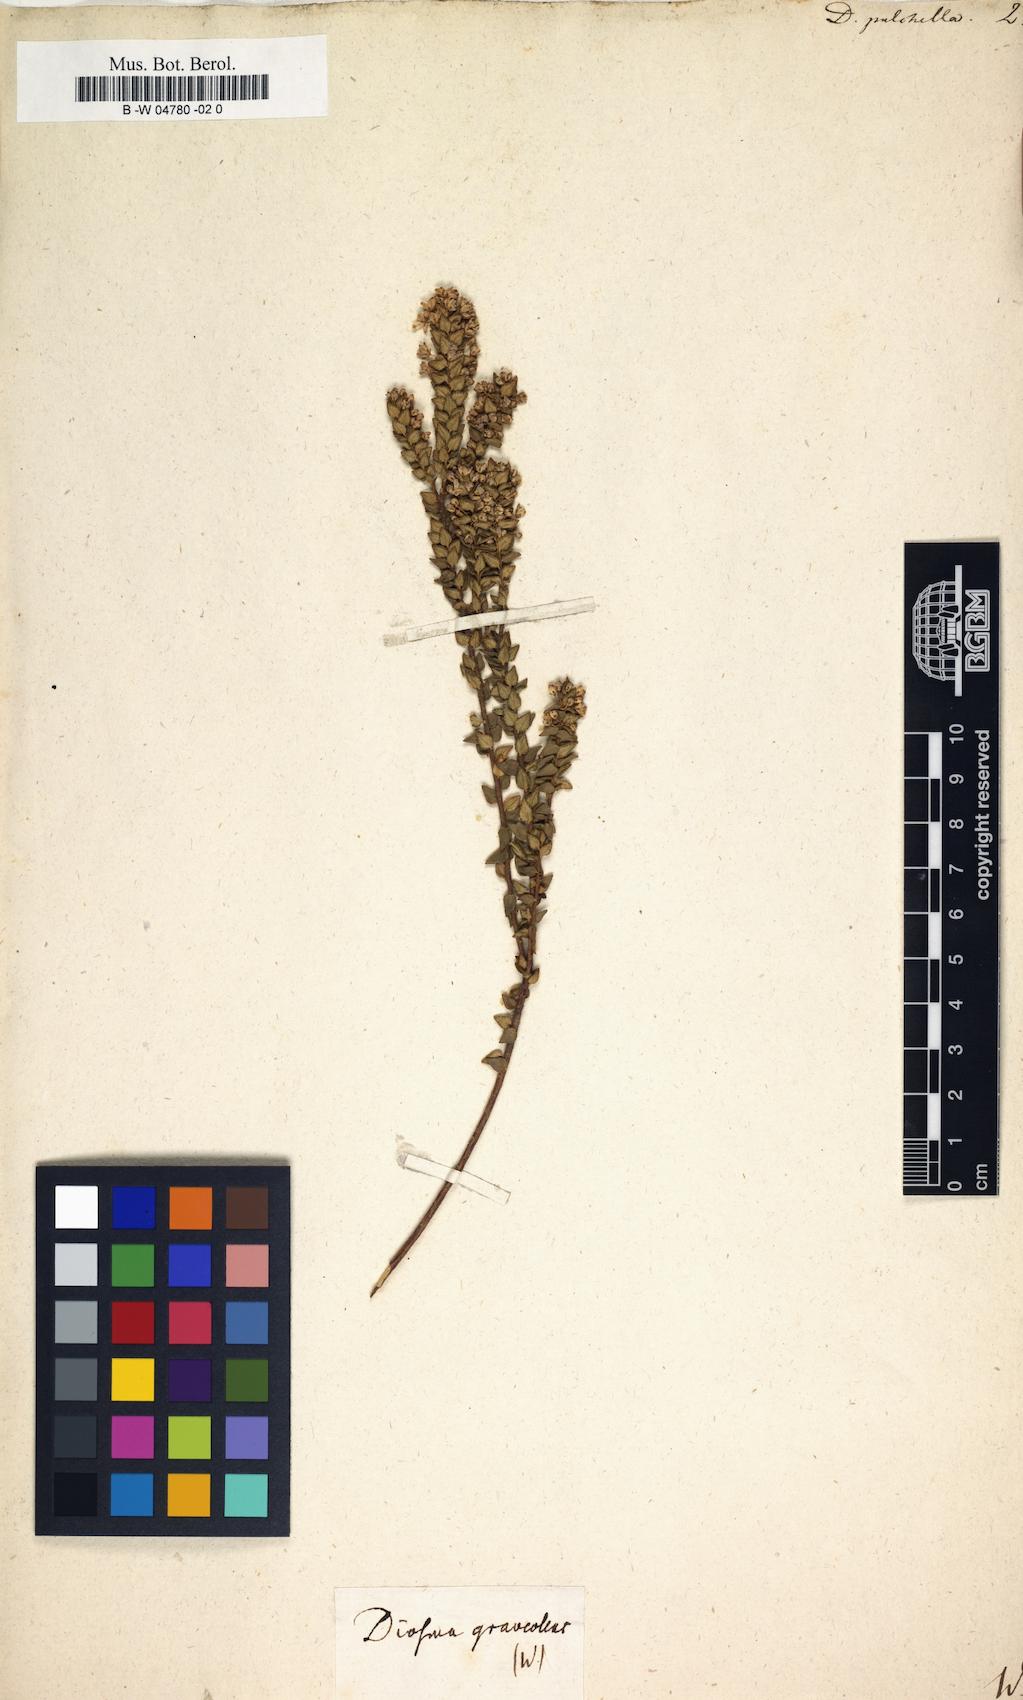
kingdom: Plantae
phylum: Tracheophyta
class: Magnoliopsida
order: Sapindales
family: Rutaceae
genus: Agathosma
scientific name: Agathosma
